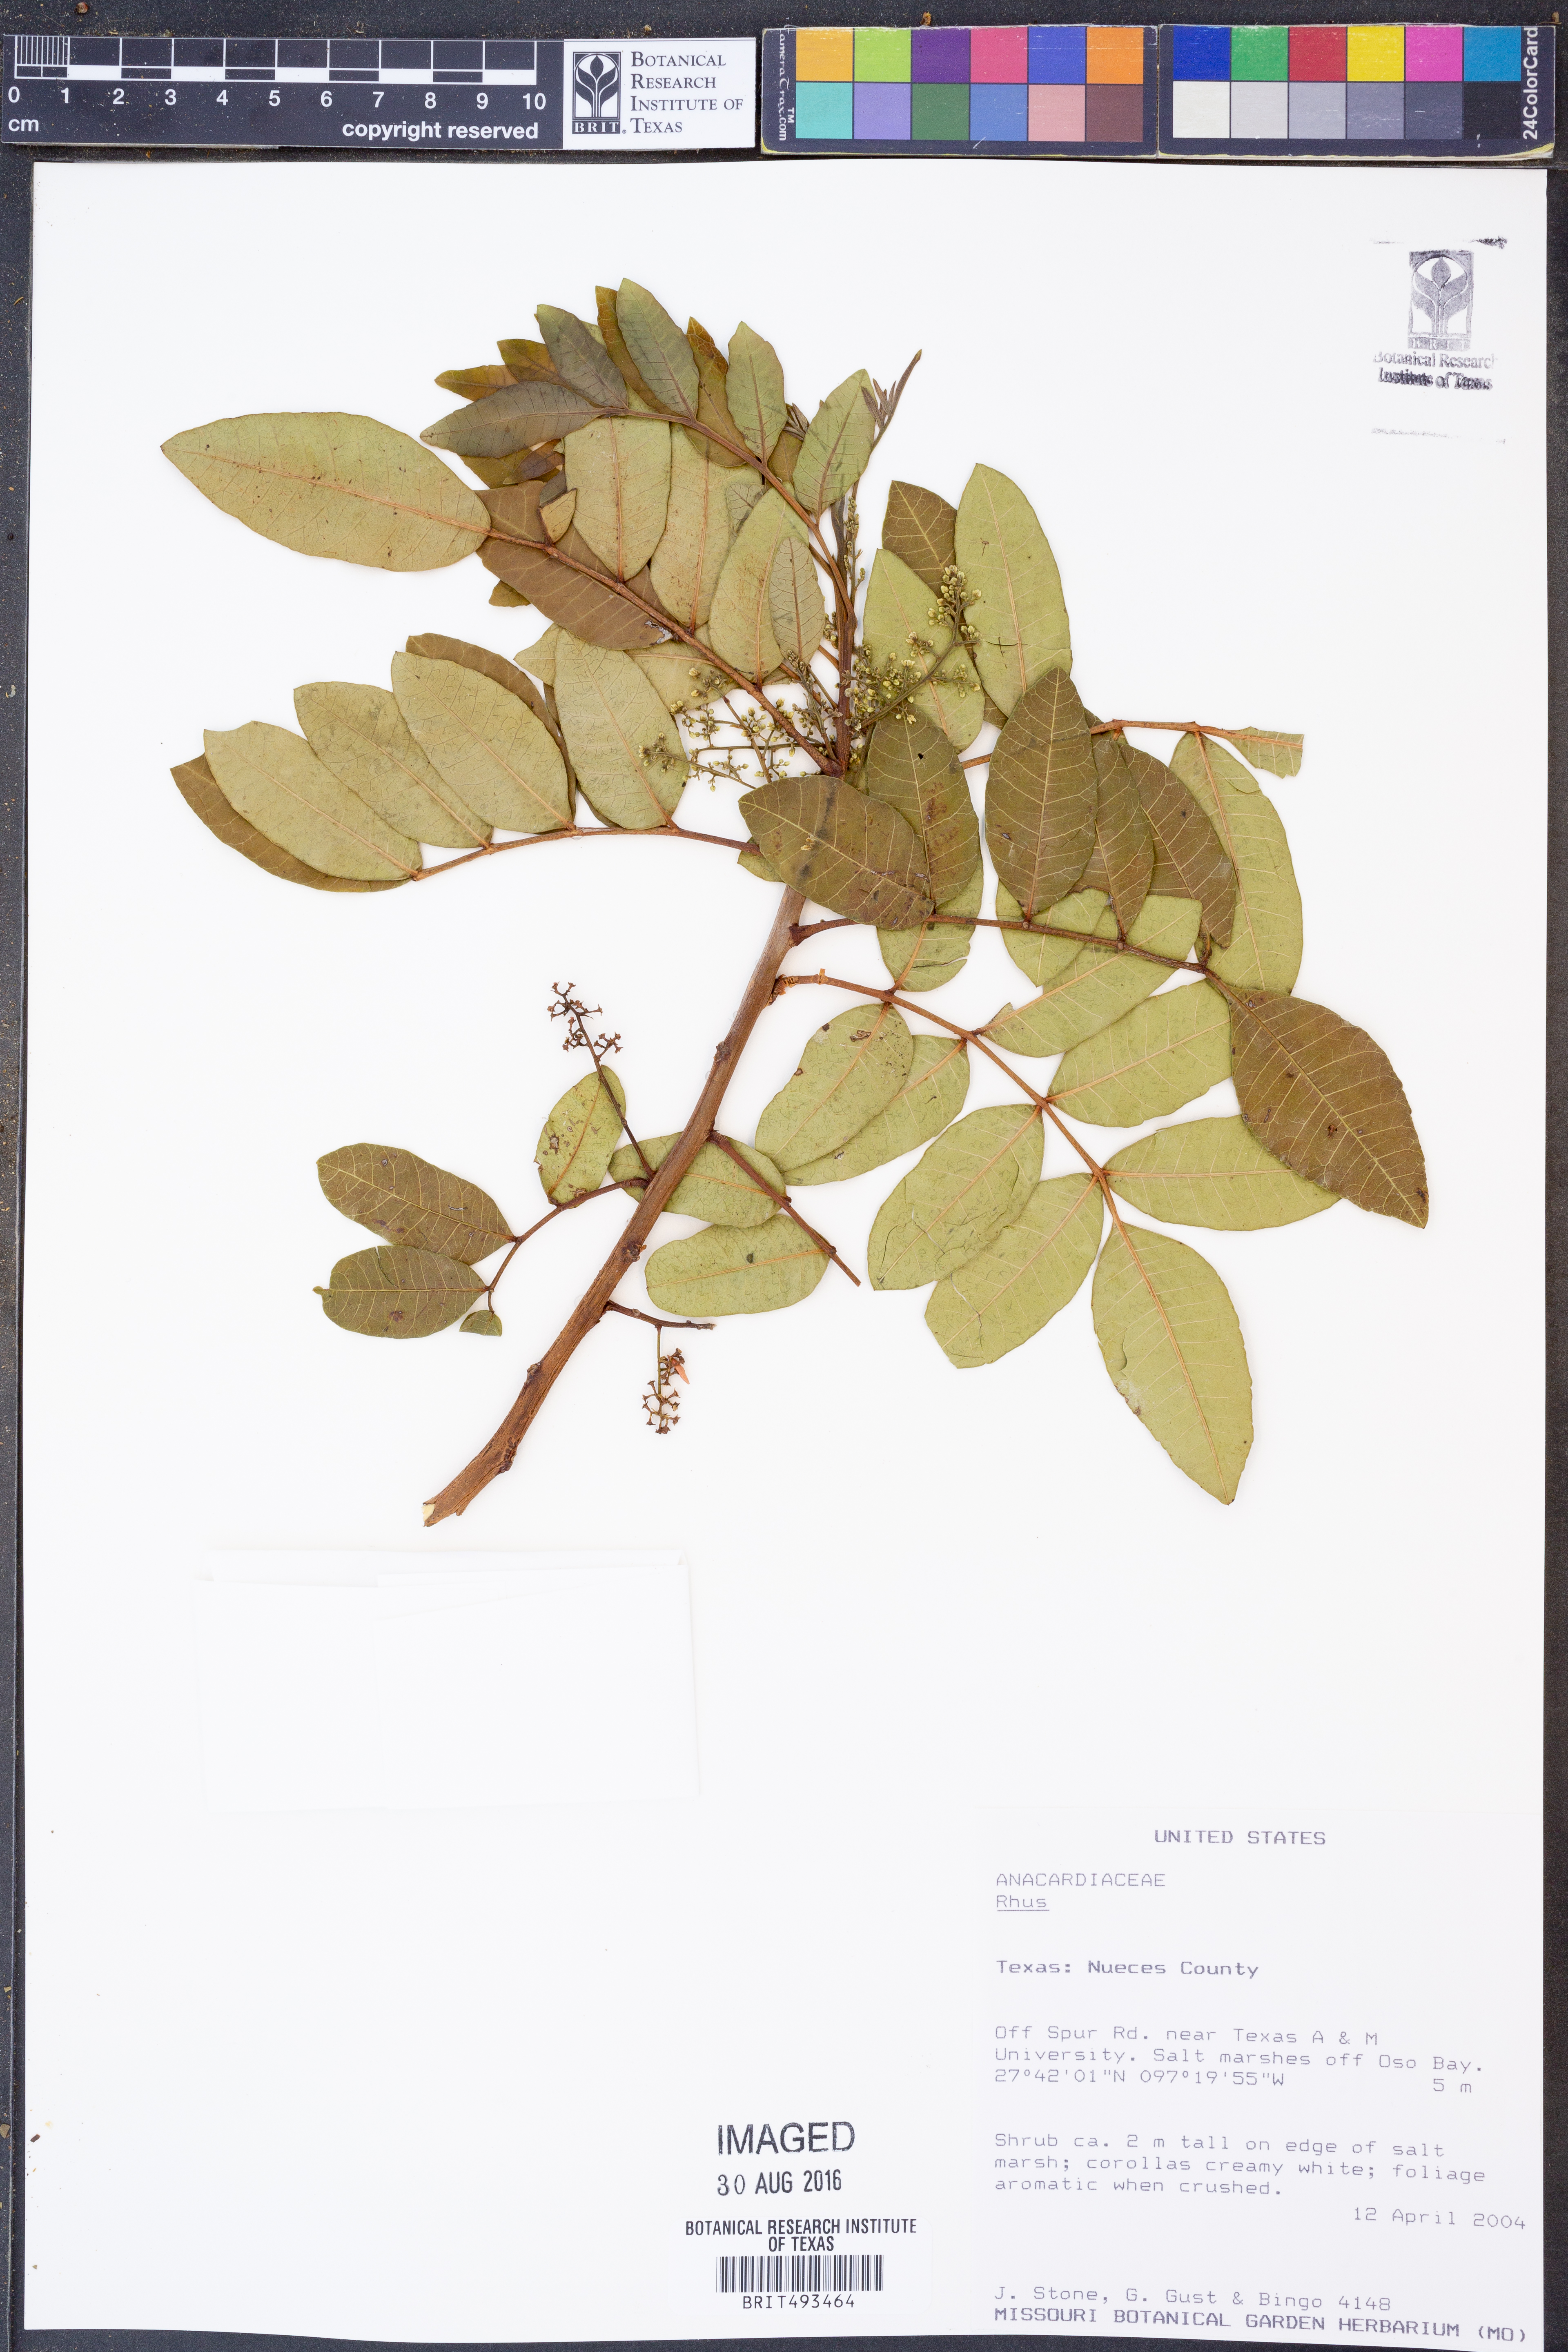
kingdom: Plantae
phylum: Tracheophyta
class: Magnoliopsida
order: Sapindales
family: Anacardiaceae
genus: Rhus
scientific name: Rhus
